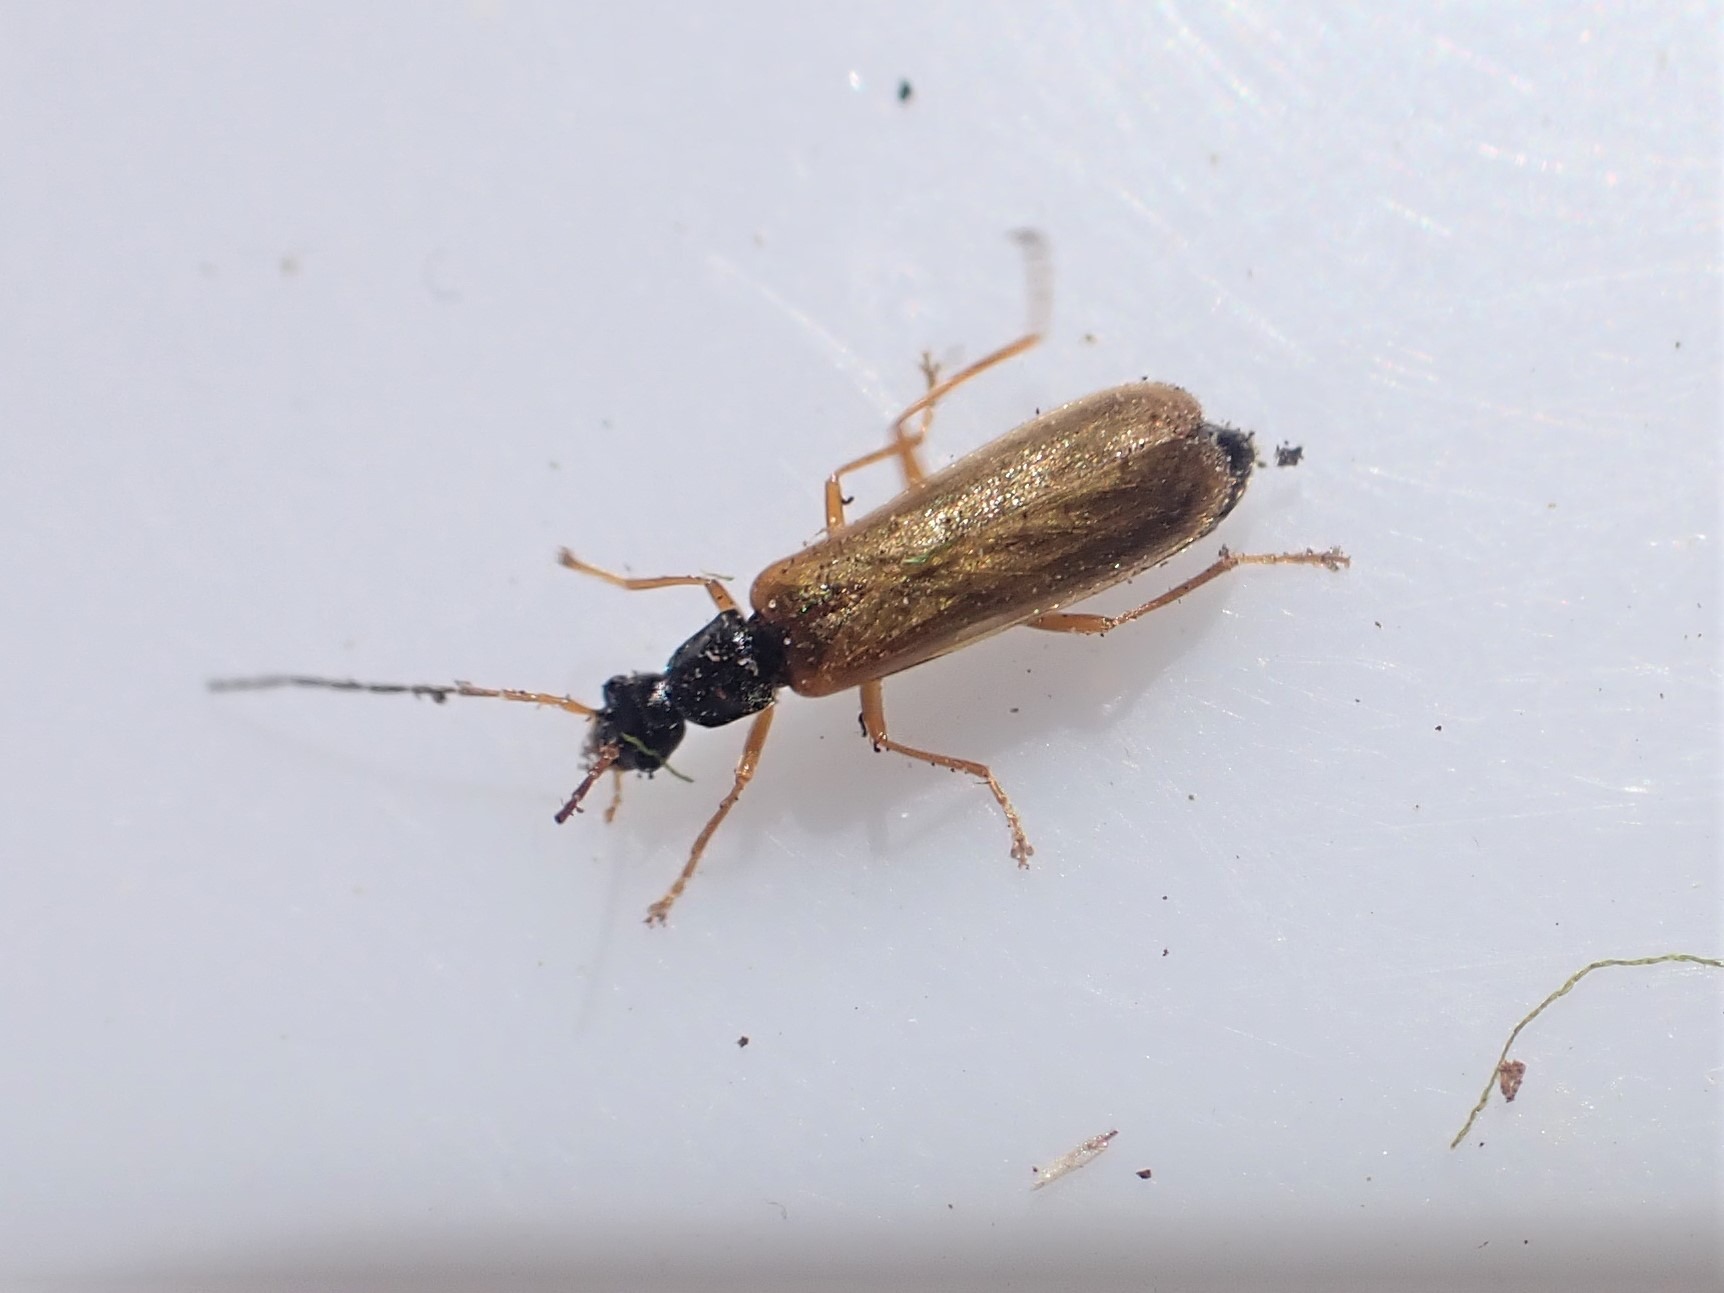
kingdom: Animalia
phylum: Arthropoda
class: Insecta
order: Coleoptera
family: Cantharidae
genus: Rhagonycha
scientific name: Rhagonycha lignosa
